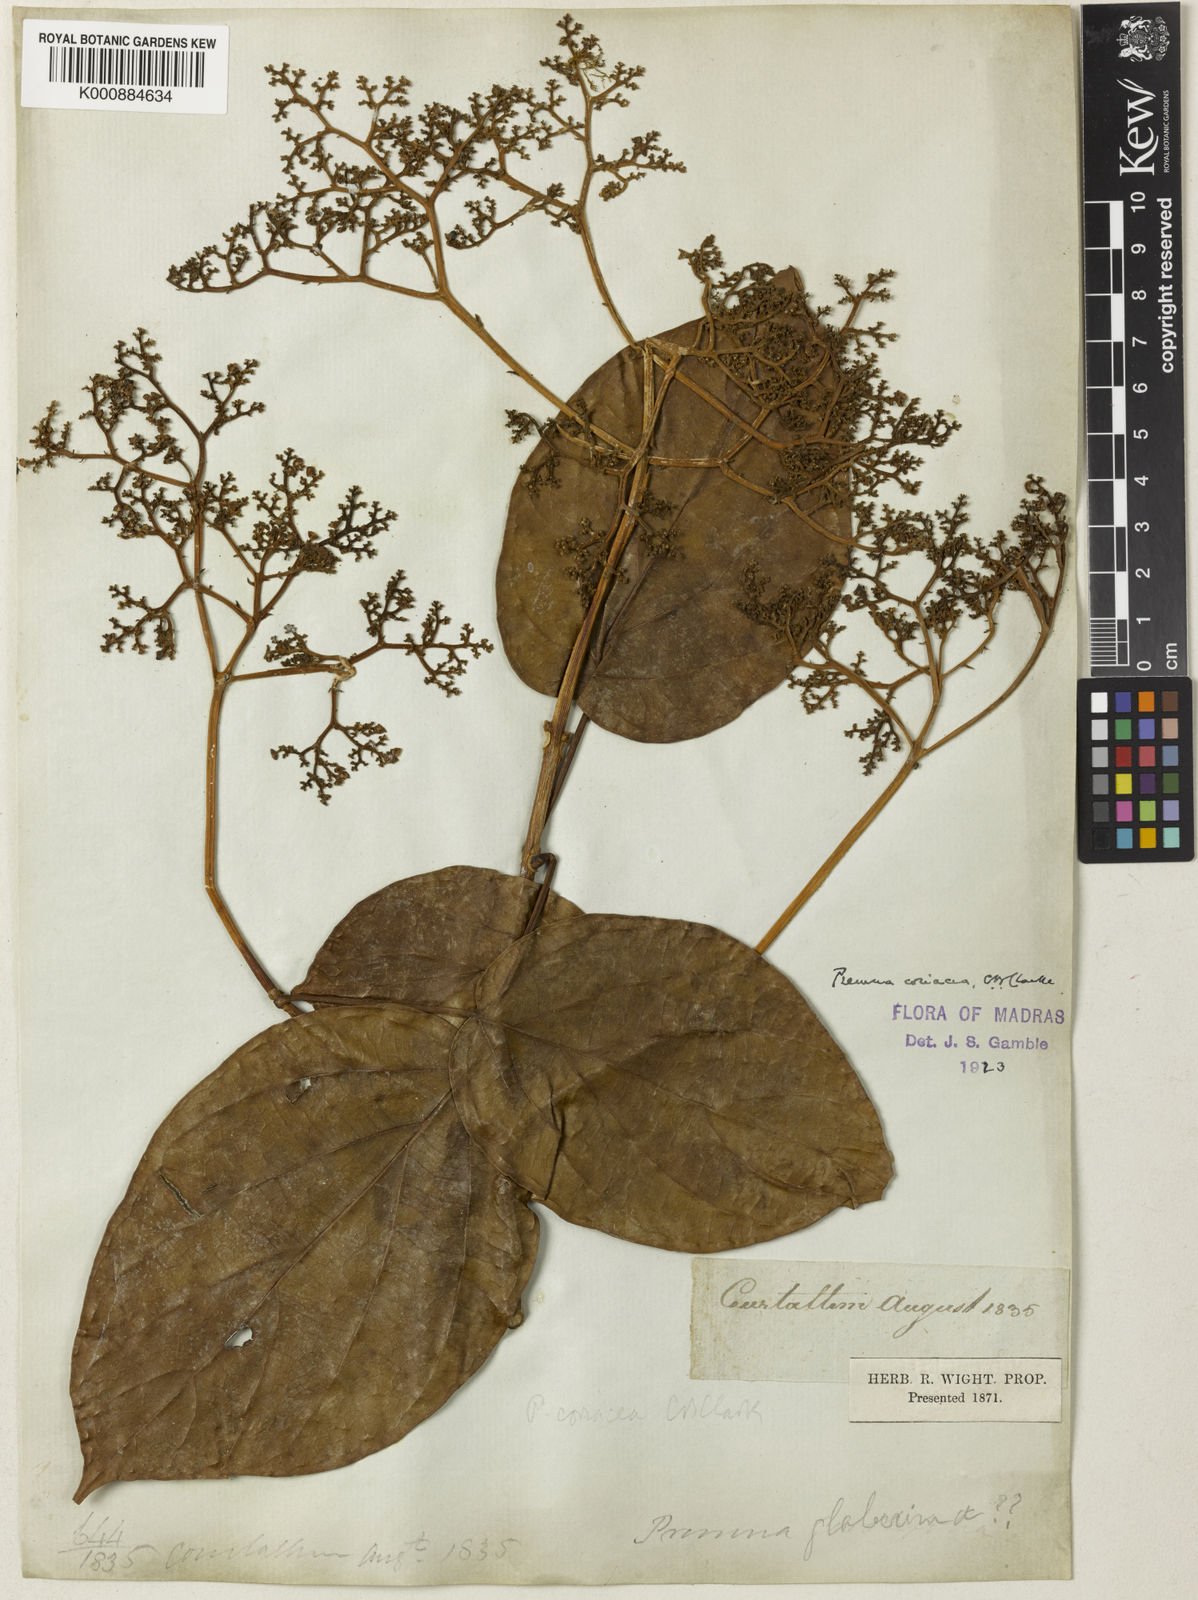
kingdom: Plantae
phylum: Tracheophyta
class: Magnoliopsida
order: Lamiales
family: Lamiaceae
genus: Premna
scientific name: Premna coriacea
